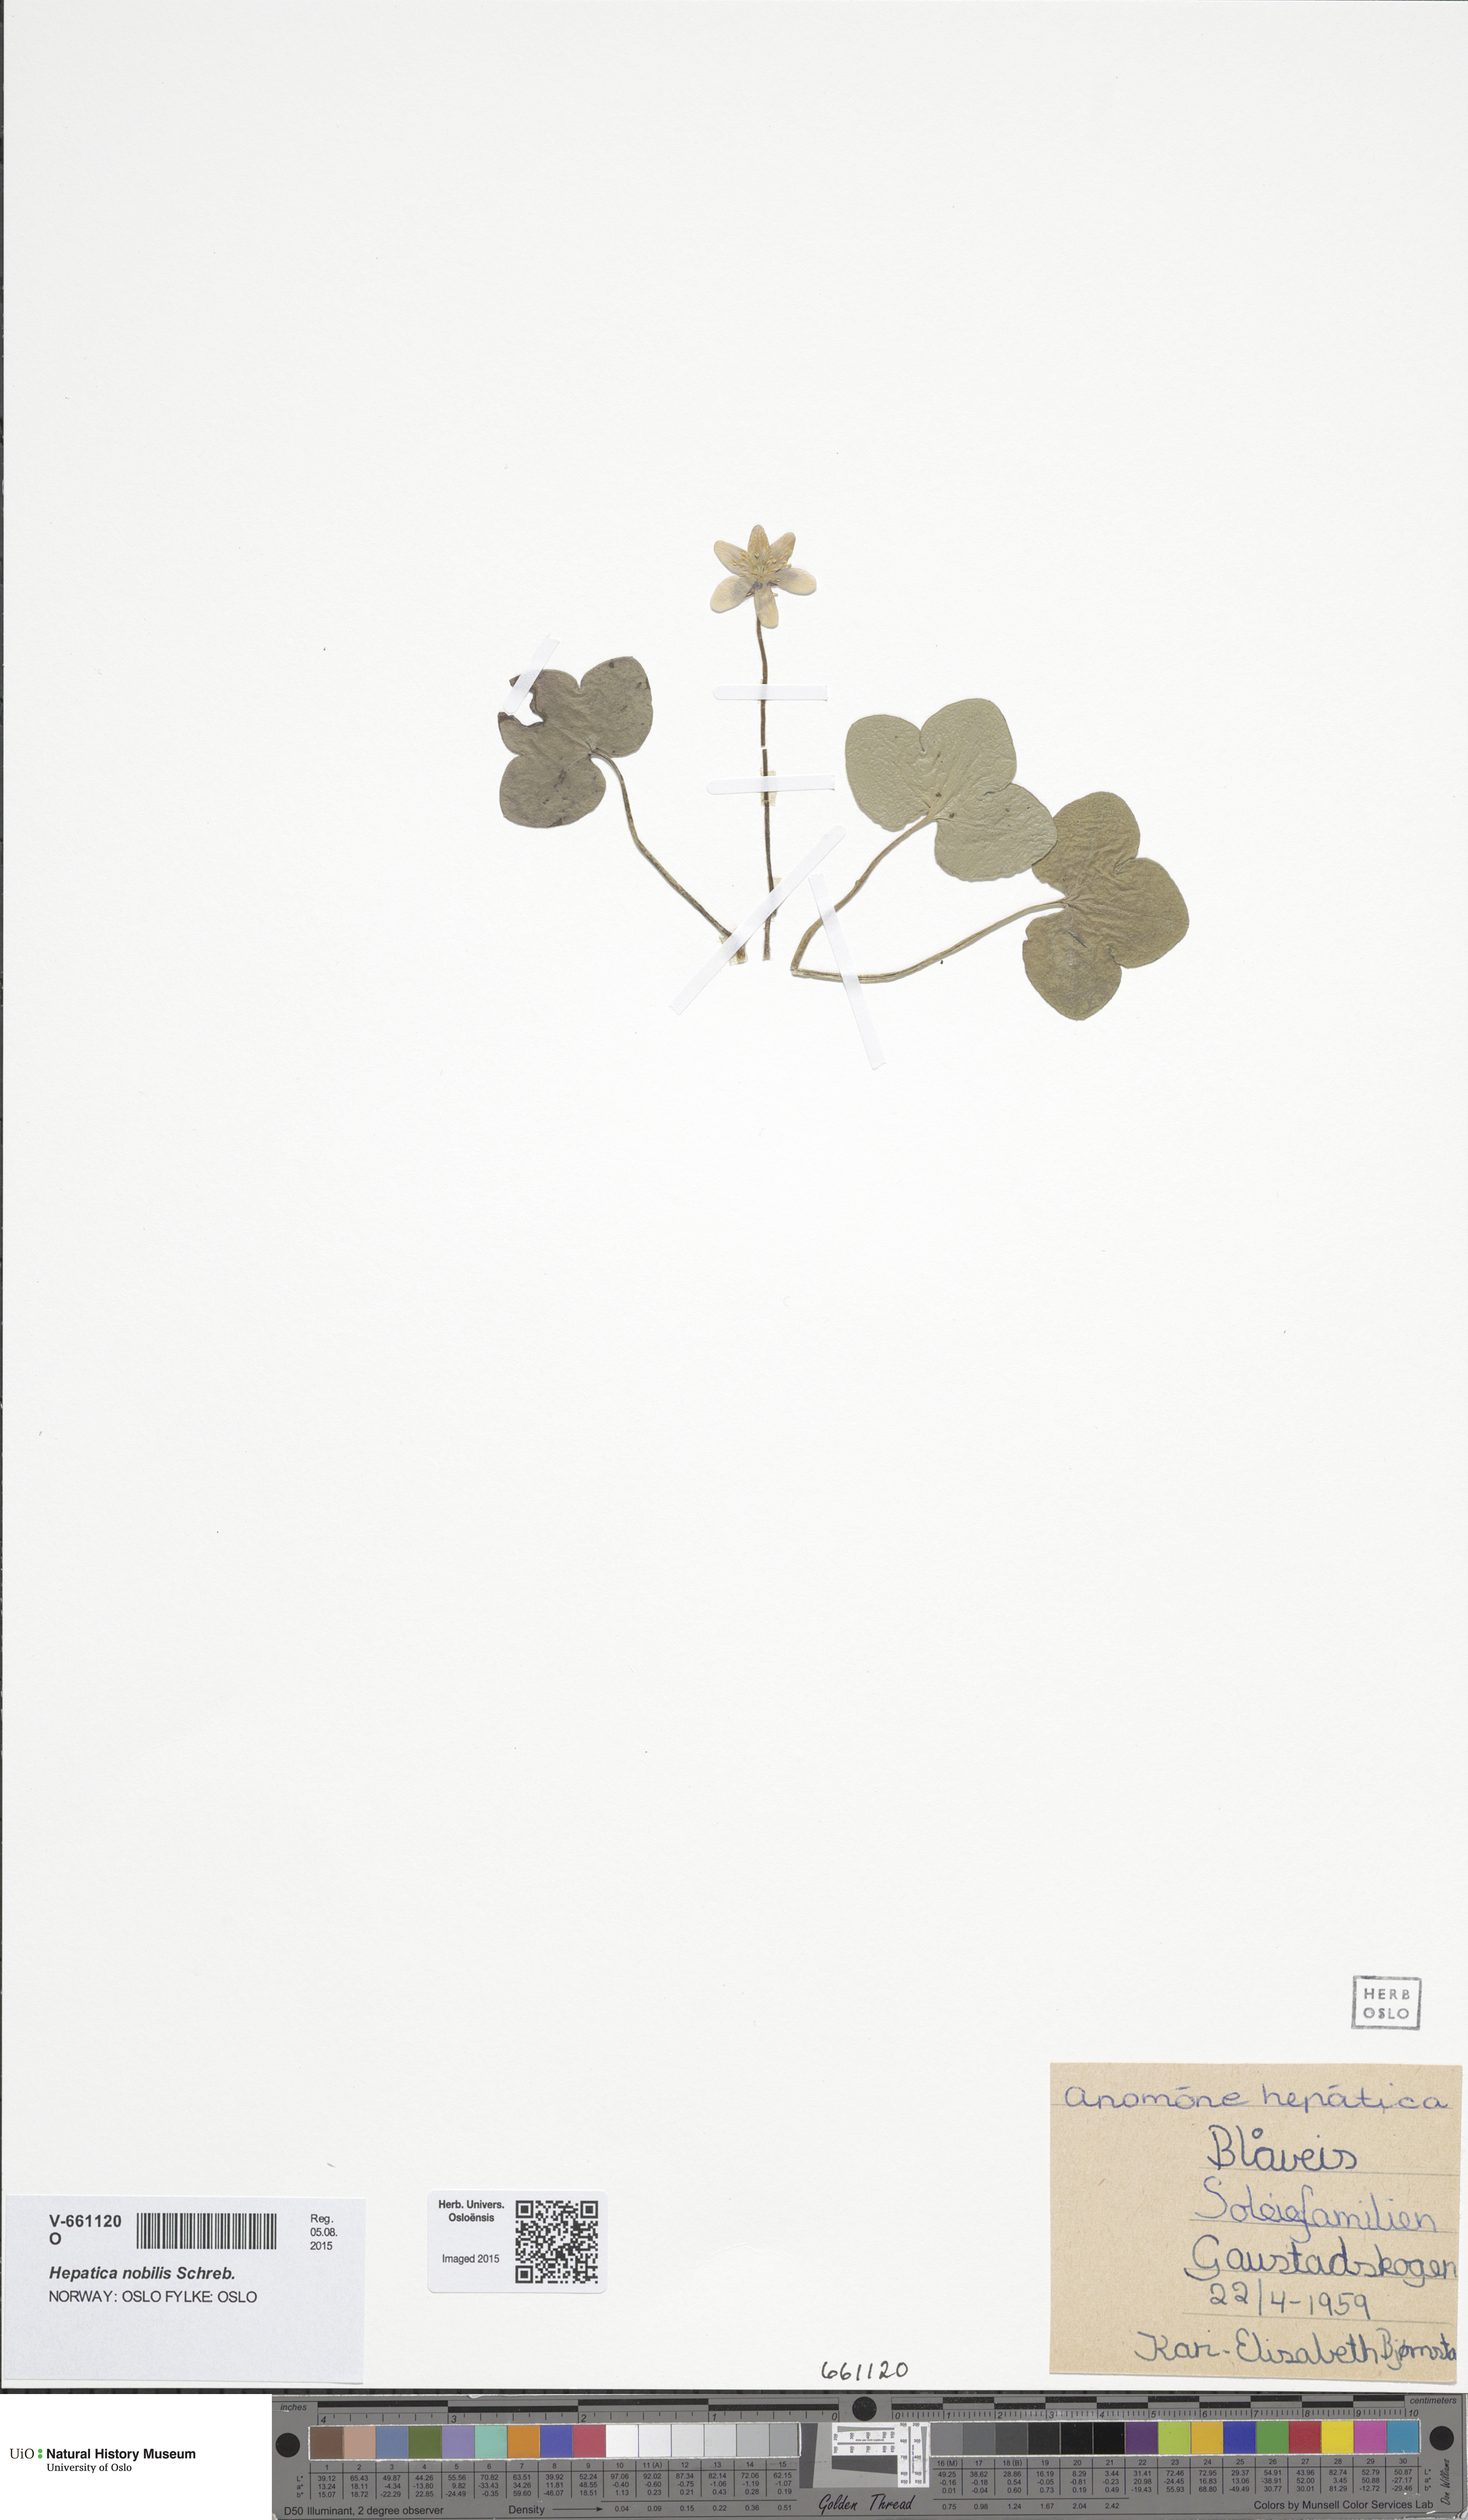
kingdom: Plantae
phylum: Tracheophyta
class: Magnoliopsida
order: Ranunculales
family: Ranunculaceae
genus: Hepatica
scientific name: Hepatica nobilis
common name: Liverleaf
